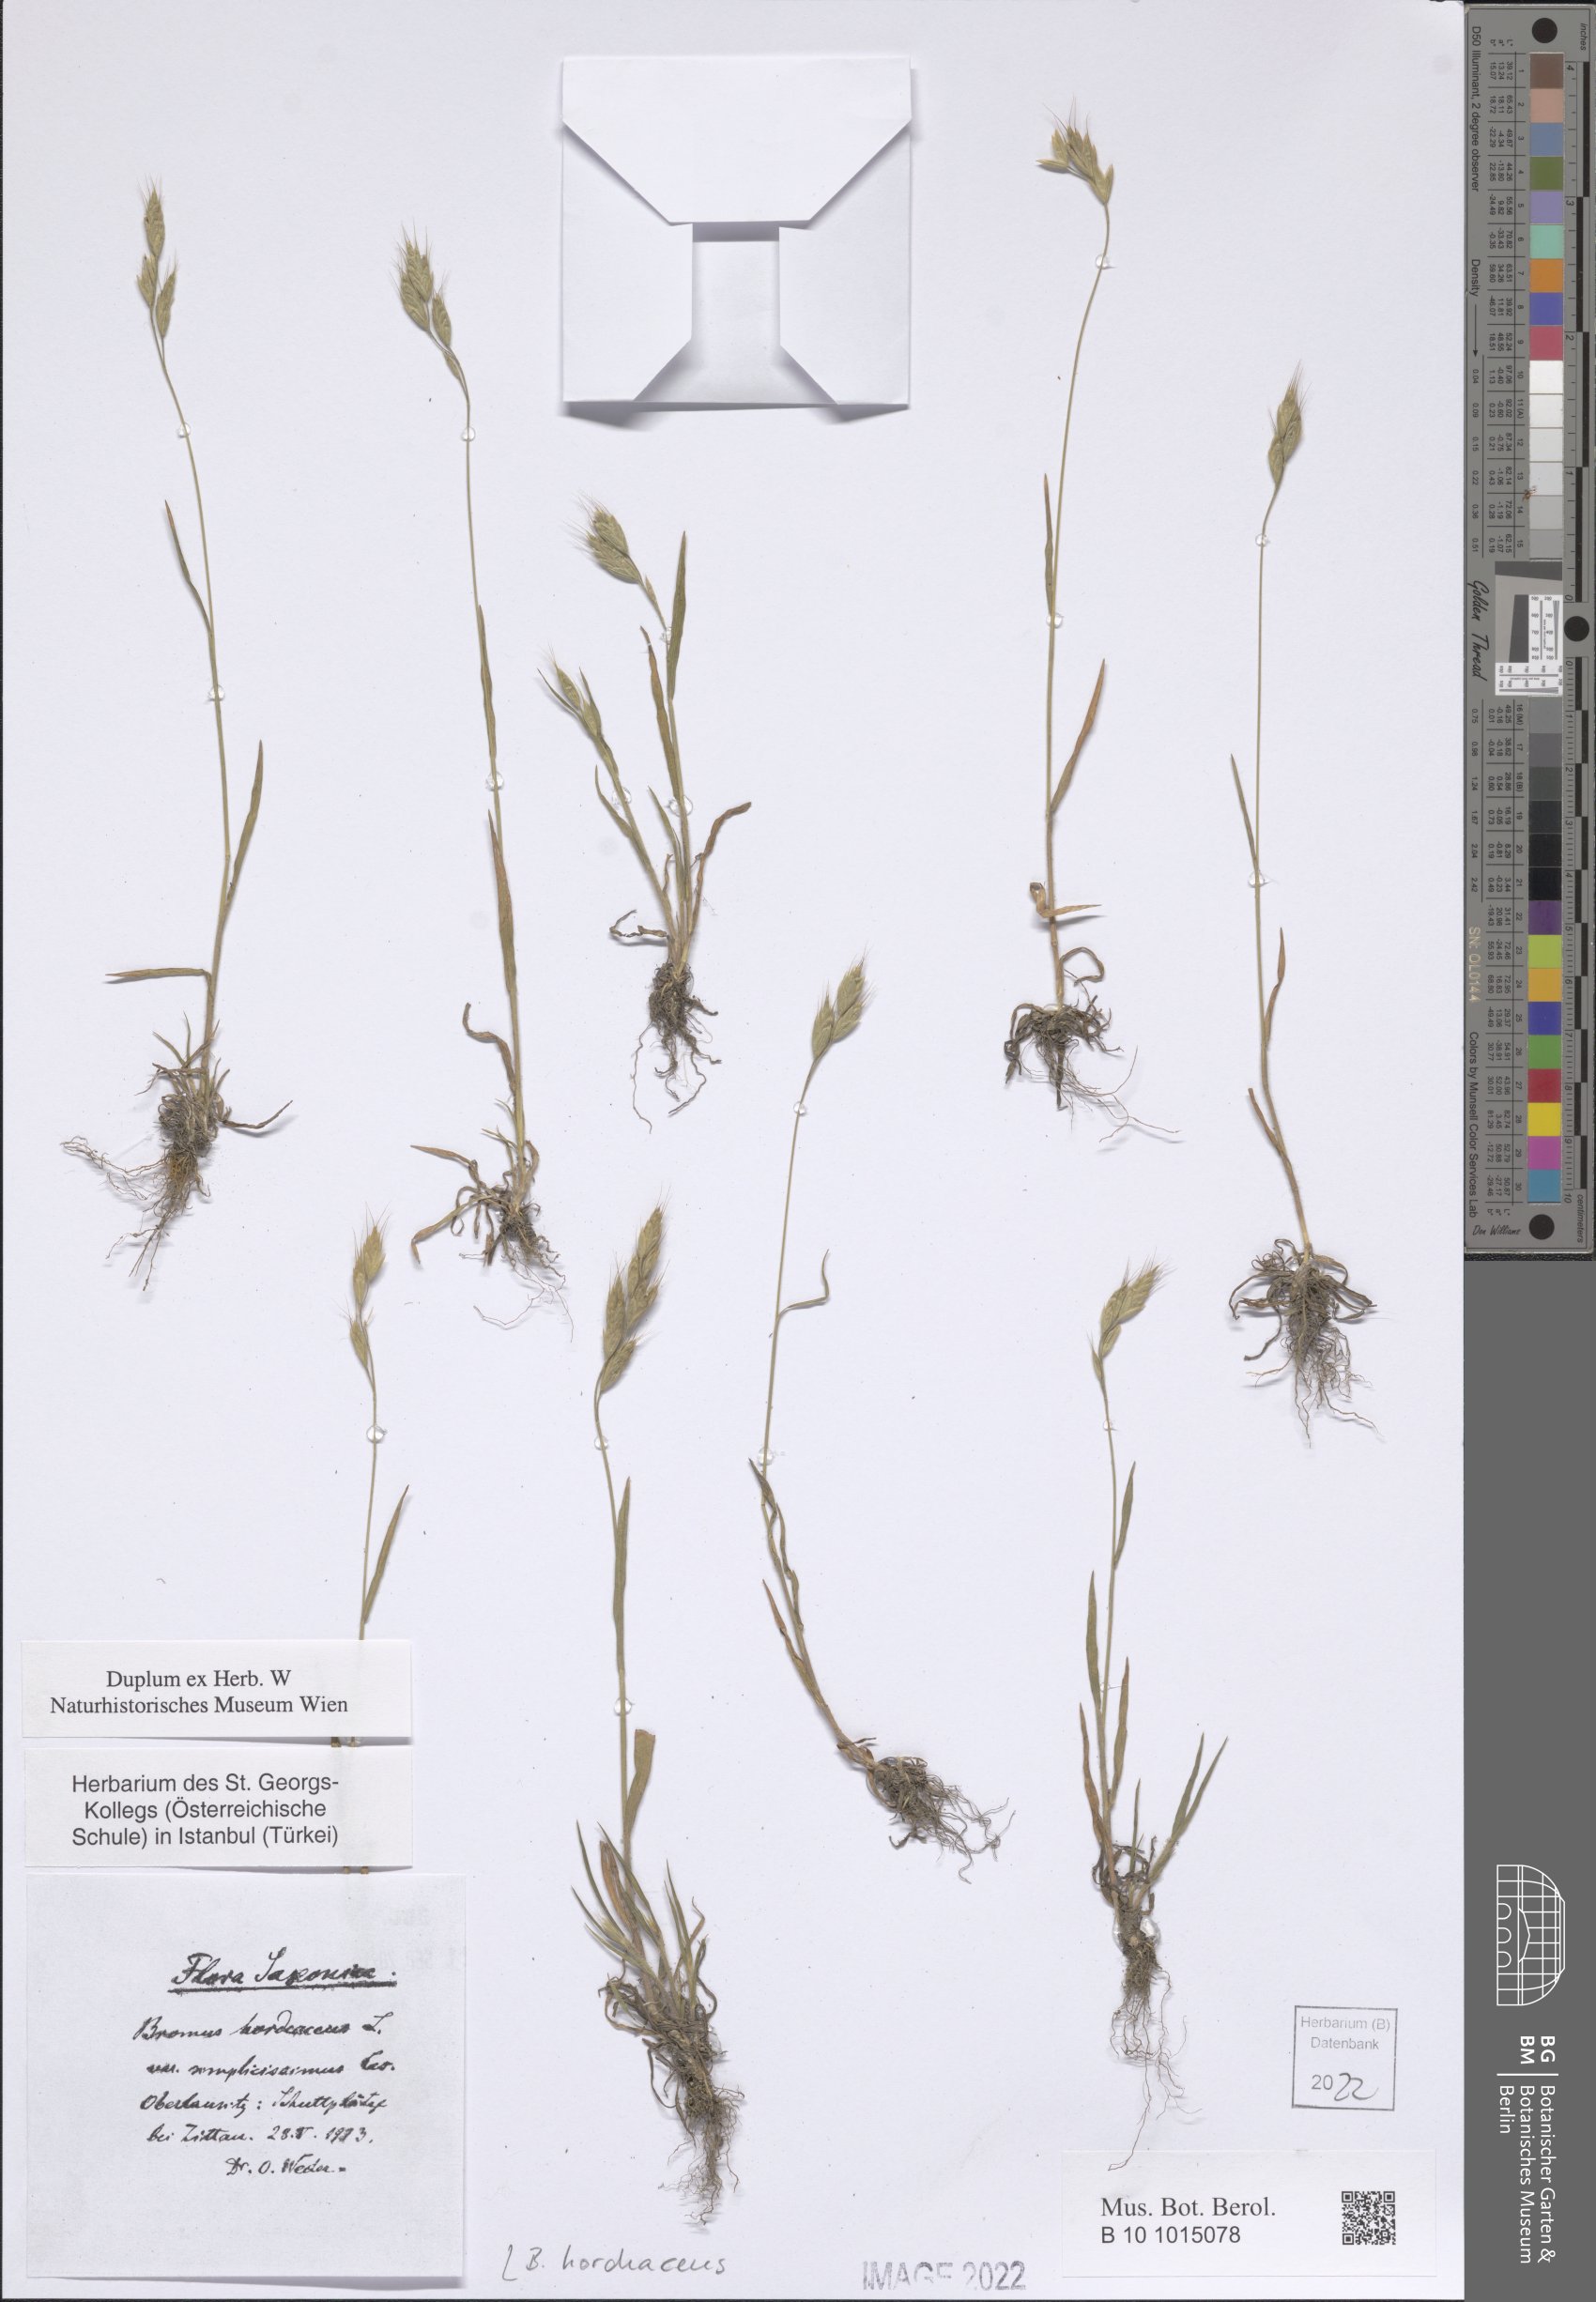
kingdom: Plantae
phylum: Tracheophyta
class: Liliopsida
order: Poales
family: Poaceae
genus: Bromus
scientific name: Bromus hordeaceus
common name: Soft brome
